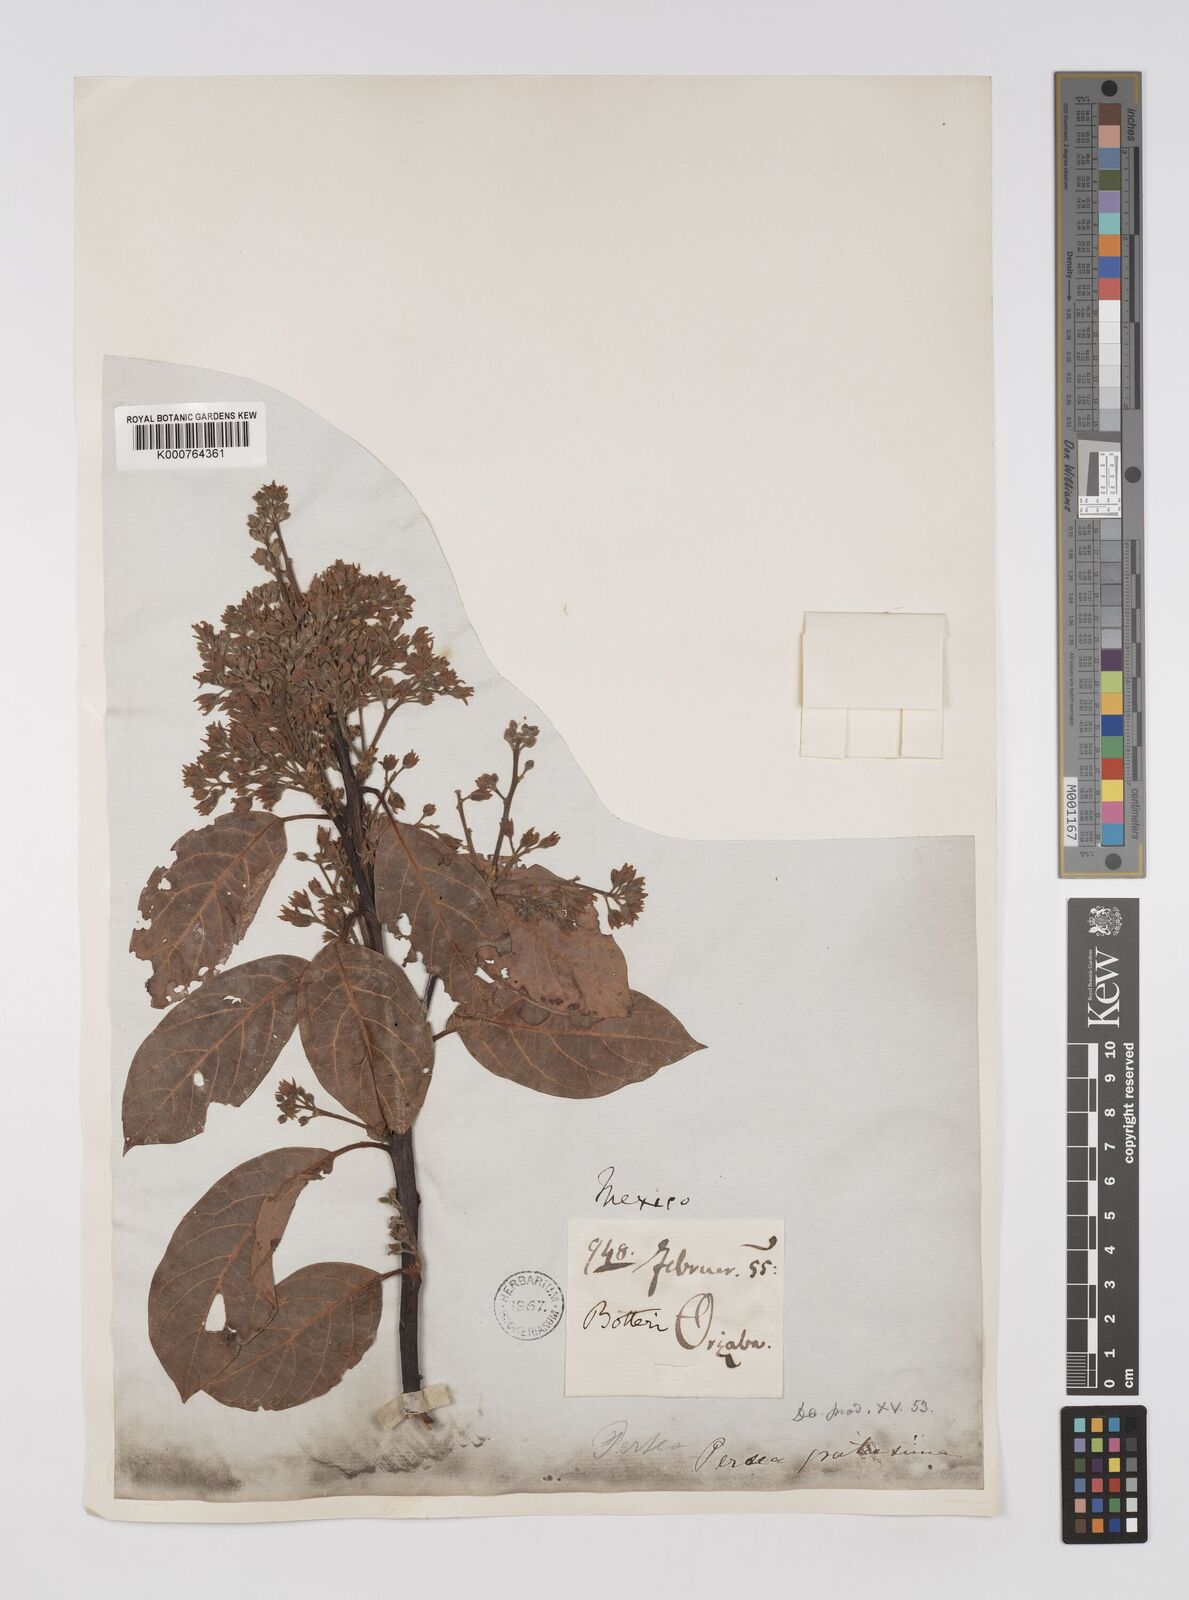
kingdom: Plantae
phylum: Tracheophyta
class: Magnoliopsida
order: Laurales
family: Lauraceae
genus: Persea
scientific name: Persea americana
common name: Avocado
